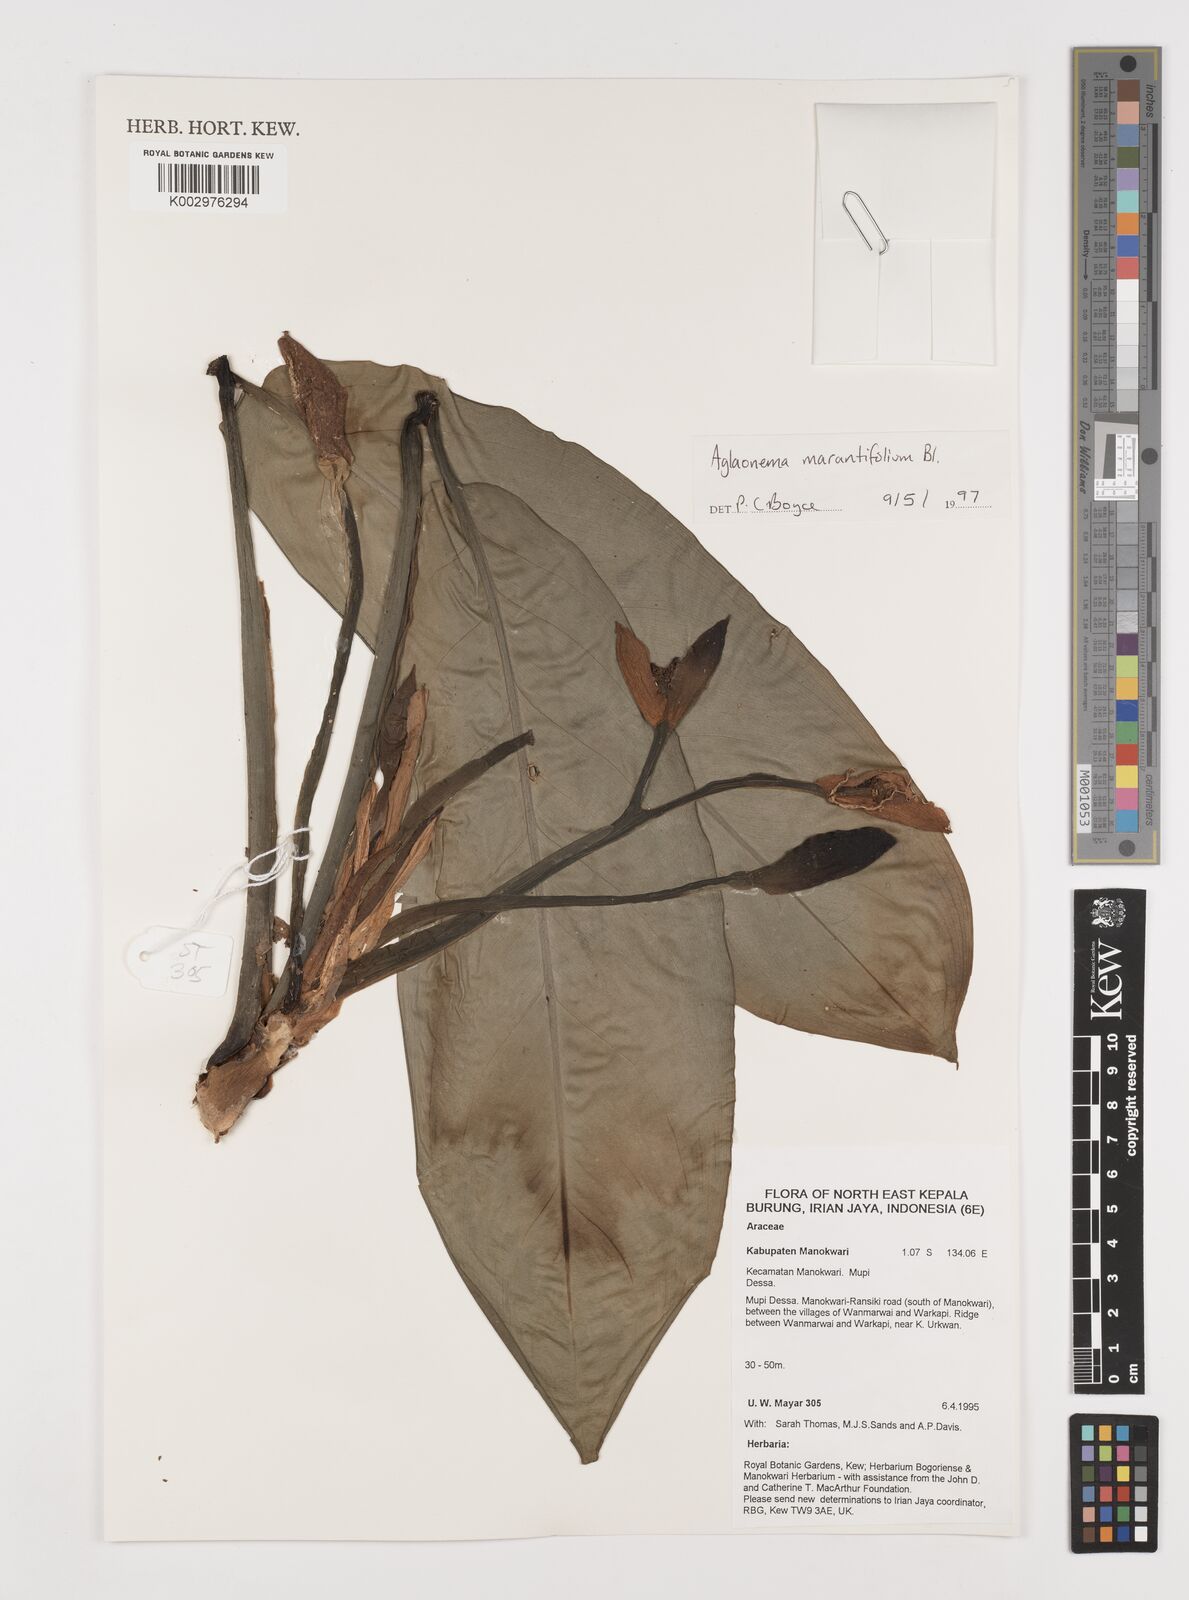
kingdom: Plantae
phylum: Tracheophyta
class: Liliopsida
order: Alismatales
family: Araceae
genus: Aglaonema
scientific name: Aglaonema marantifolium
